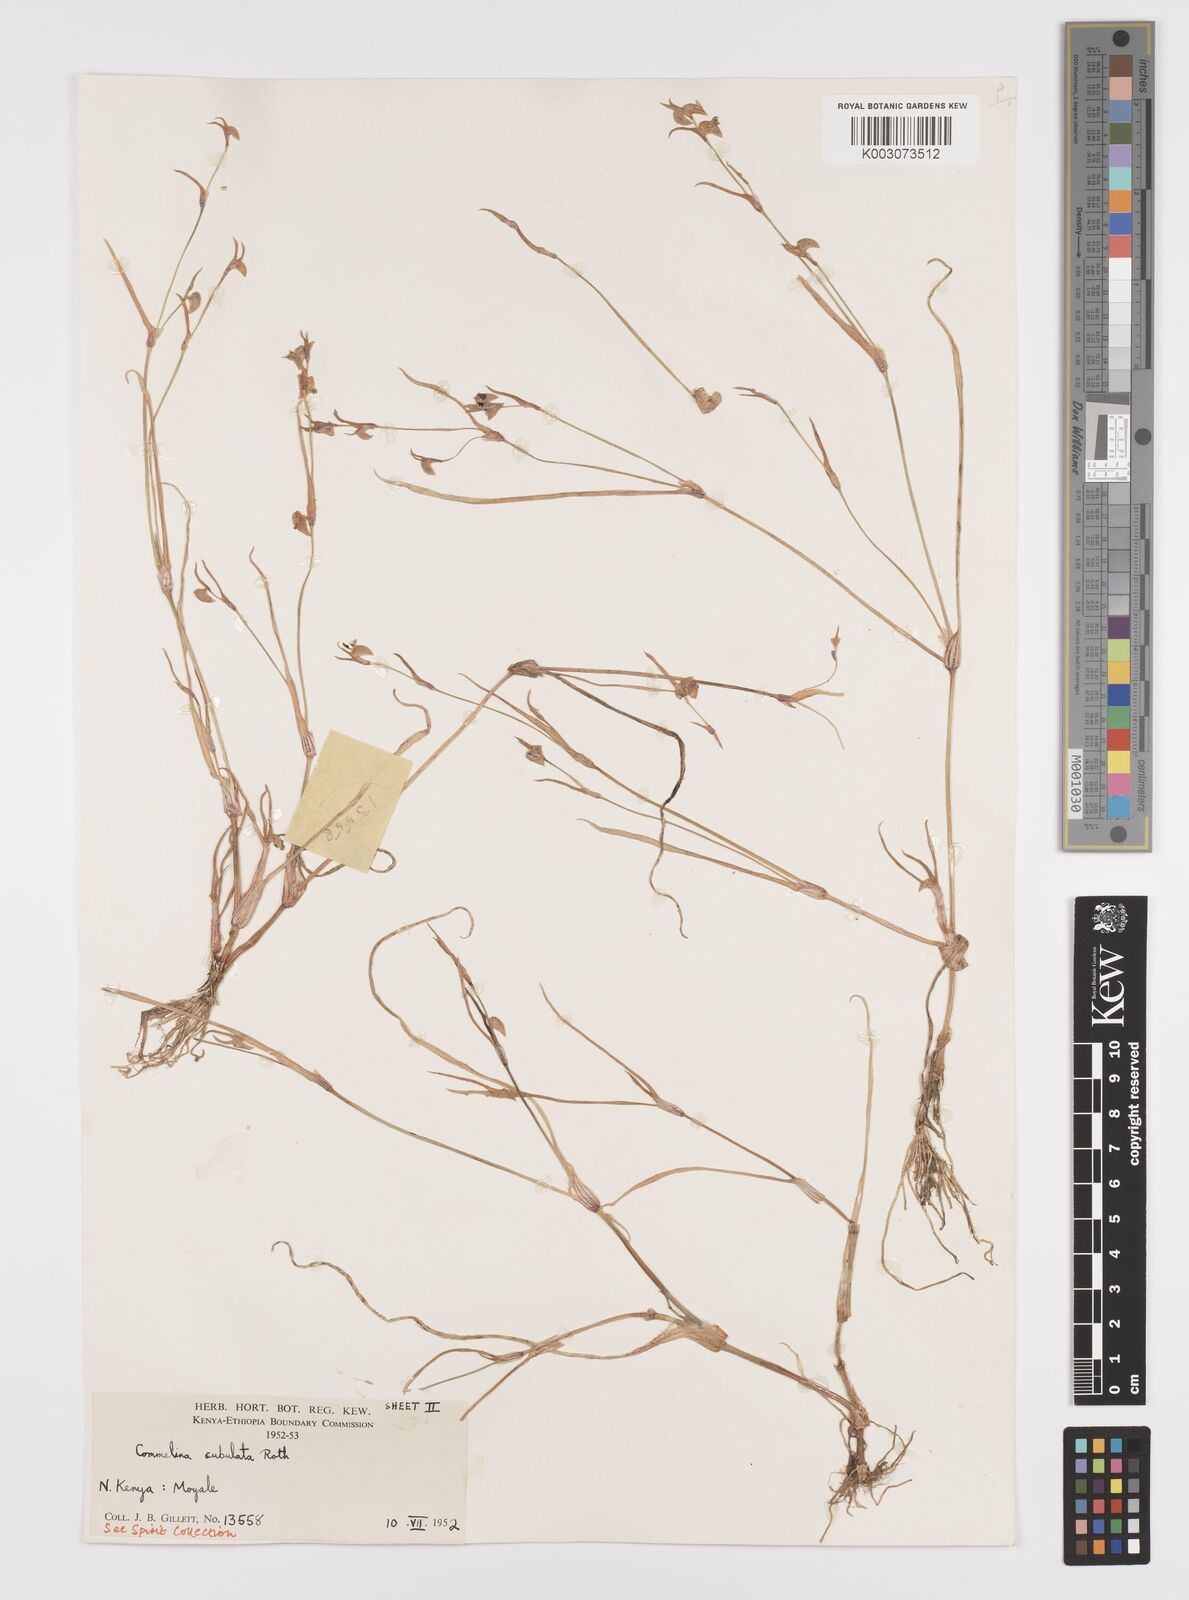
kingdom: Plantae
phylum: Tracheophyta
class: Liliopsida
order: Commelinales
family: Commelinaceae
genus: Commelina
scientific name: Commelina subulata
